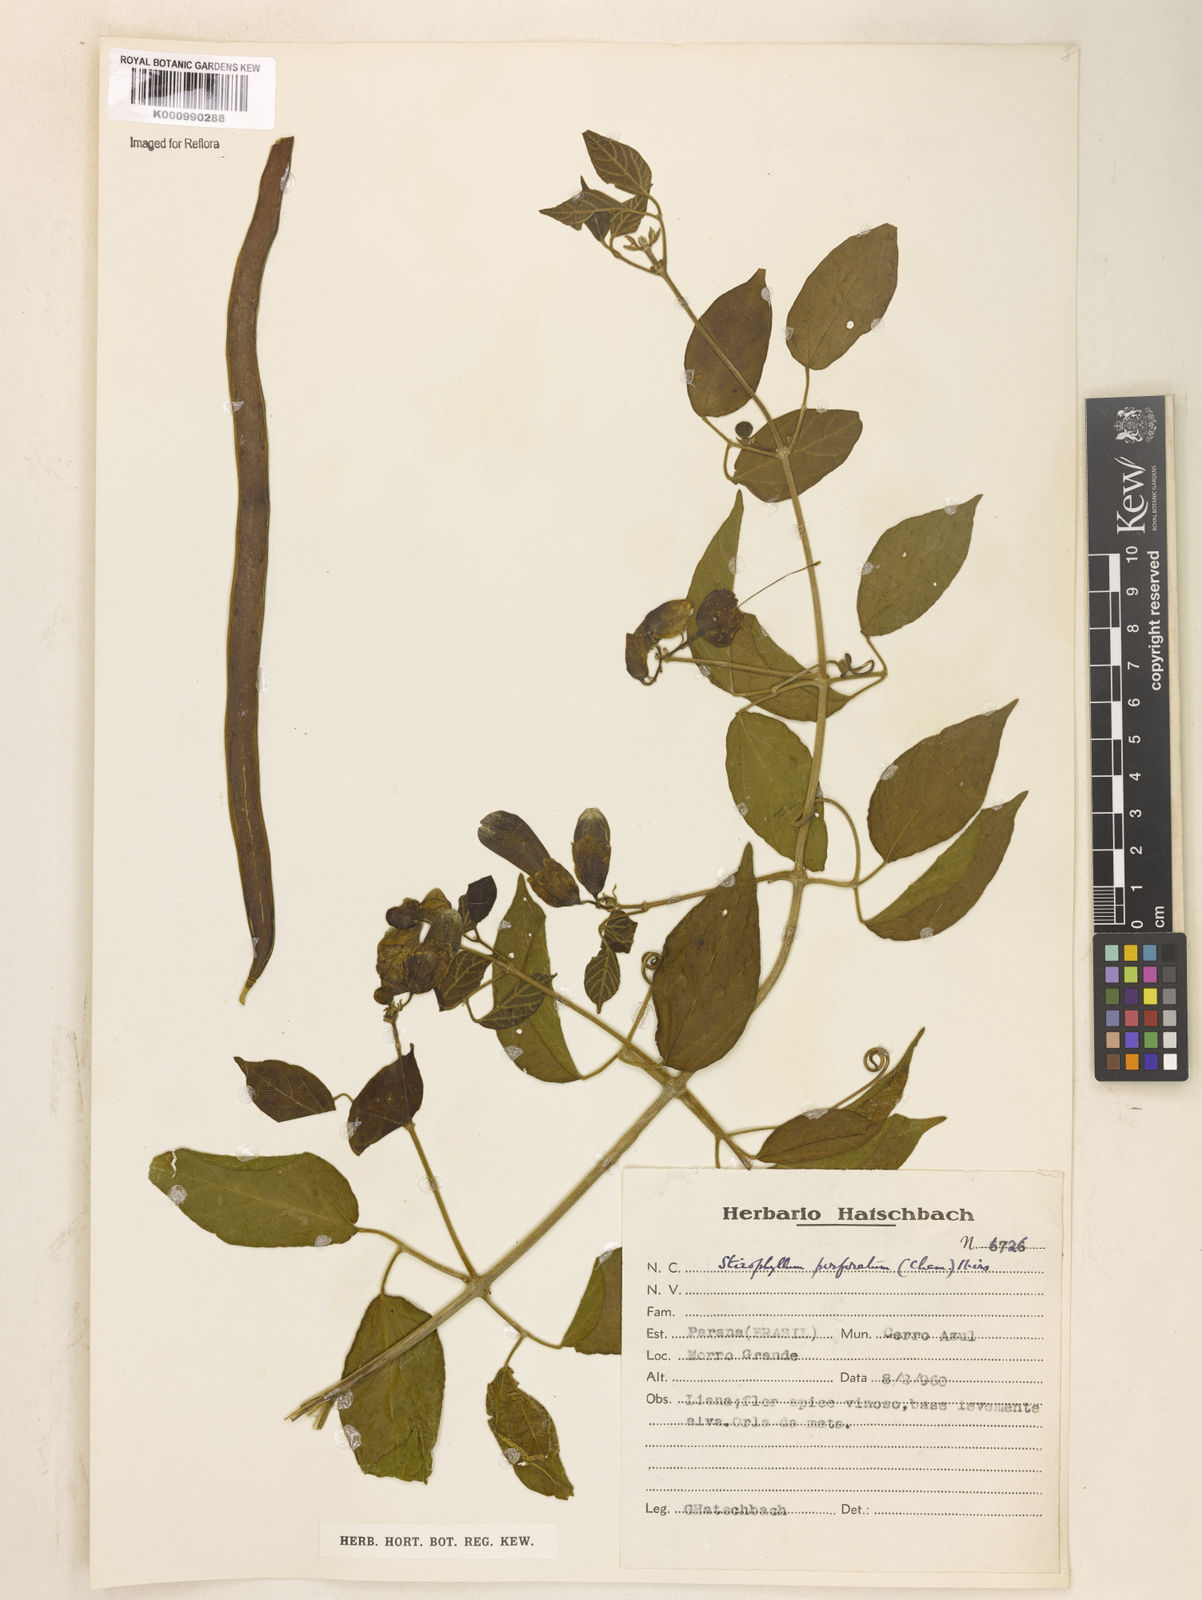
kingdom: Plantae
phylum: Tracheophyta
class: Magnoliopsida
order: Lamiales
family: Bignoniaceae
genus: Stizophyllum
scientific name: Stizophyllum perforatum
